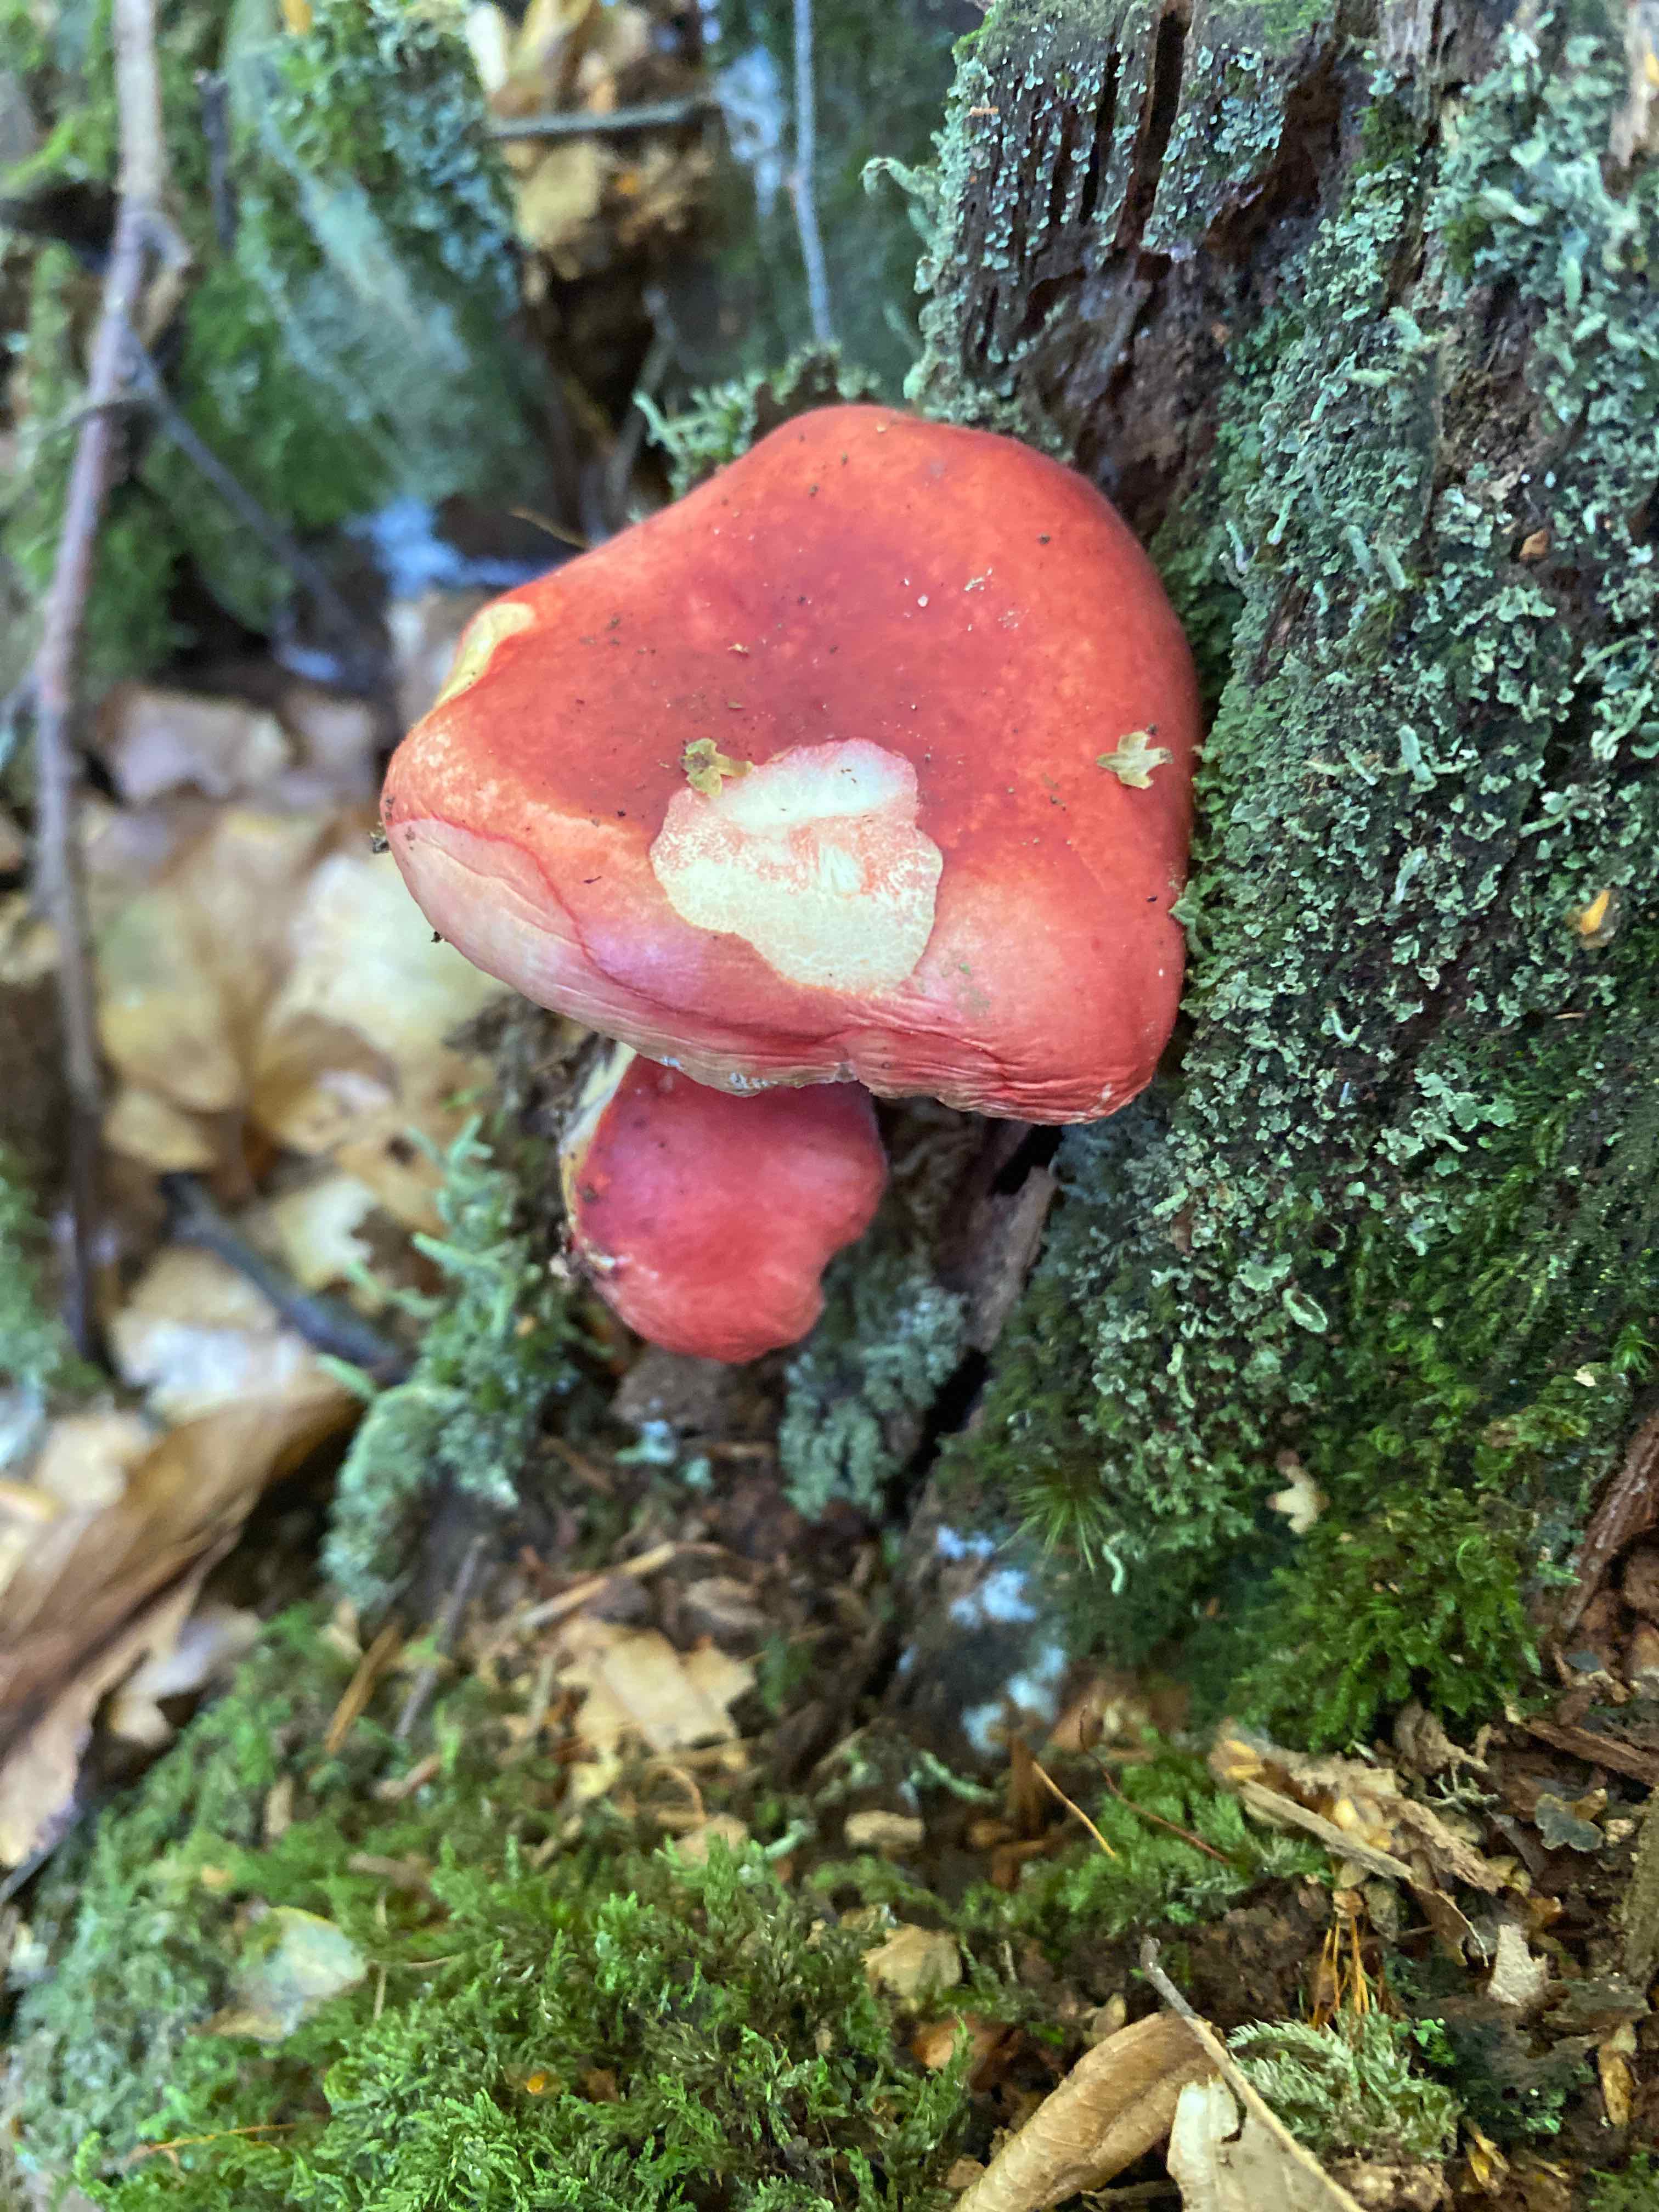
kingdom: Fungi
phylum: Basidiomycota
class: Agaricomycetes
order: Russulales
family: Russulaceae
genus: Russula
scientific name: Russula
